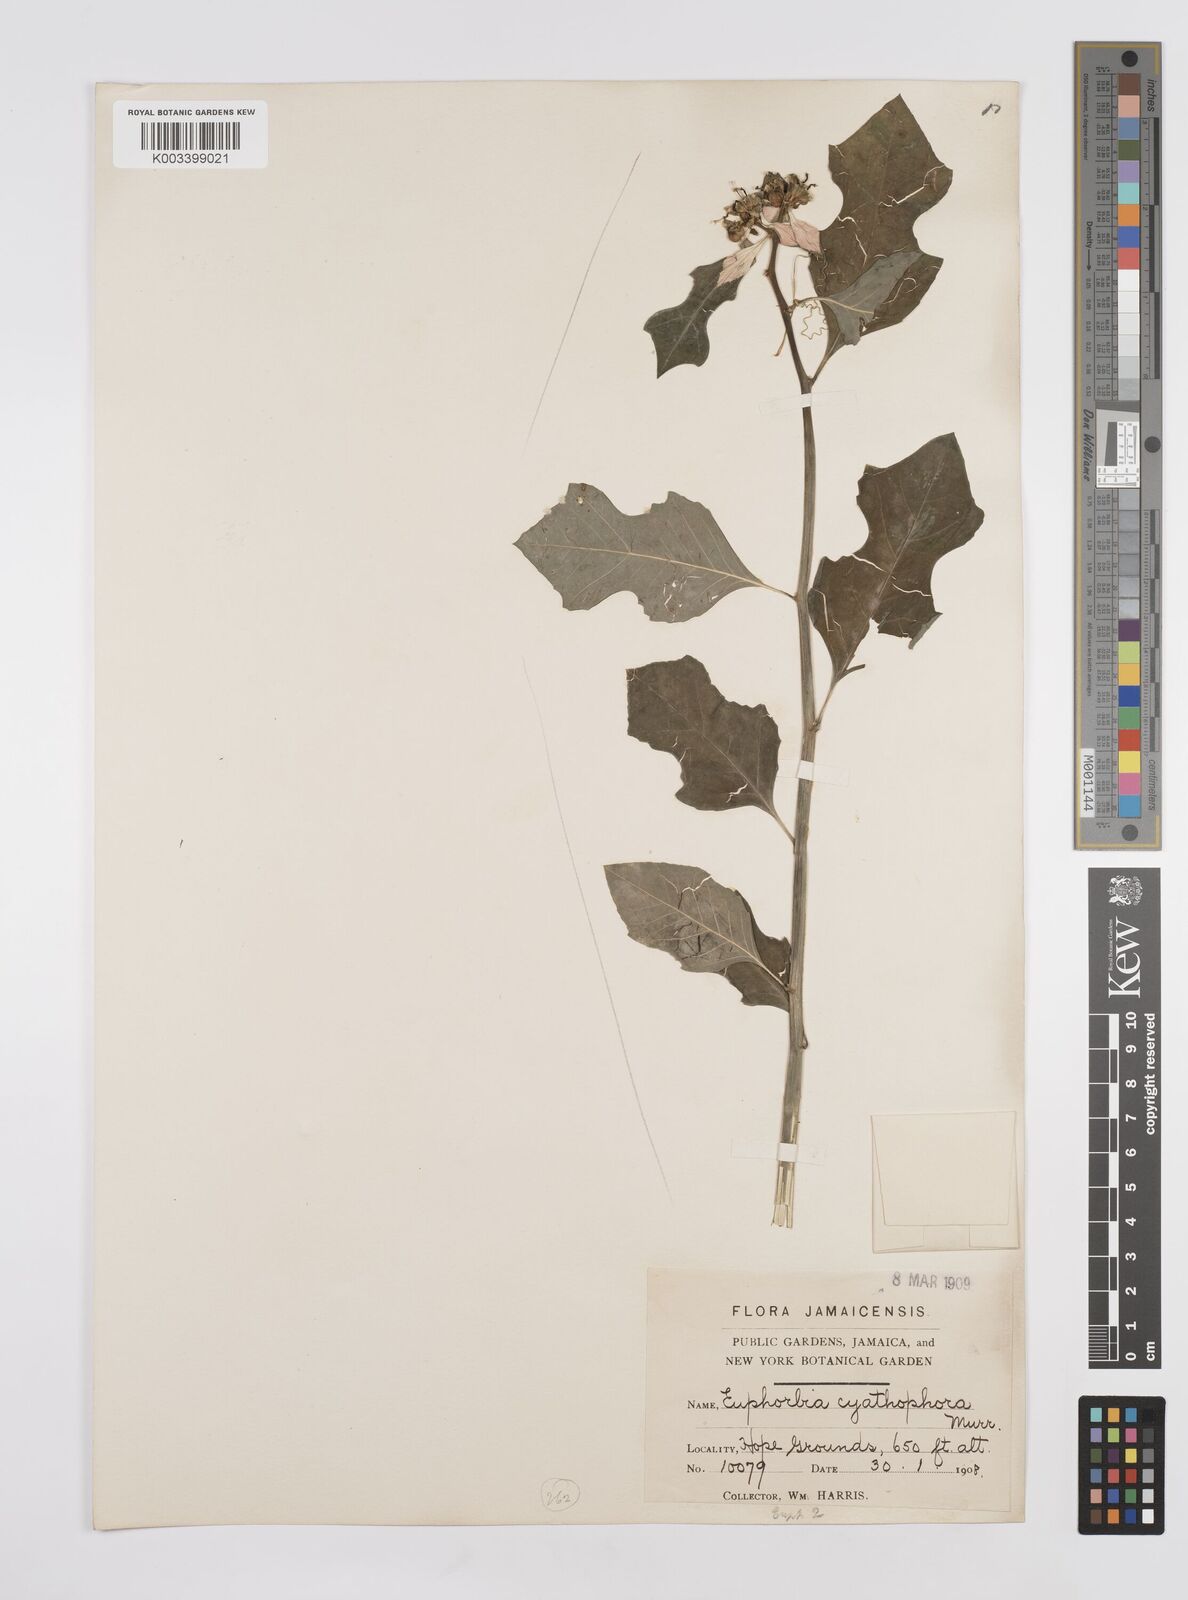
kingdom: Plantae
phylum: Tracheophyta
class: Magnoliopsida
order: Malpighiales
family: Euphorbiaceae
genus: Euphorbia
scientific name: Euphorbia heterophylla
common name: Mexican fireplant
